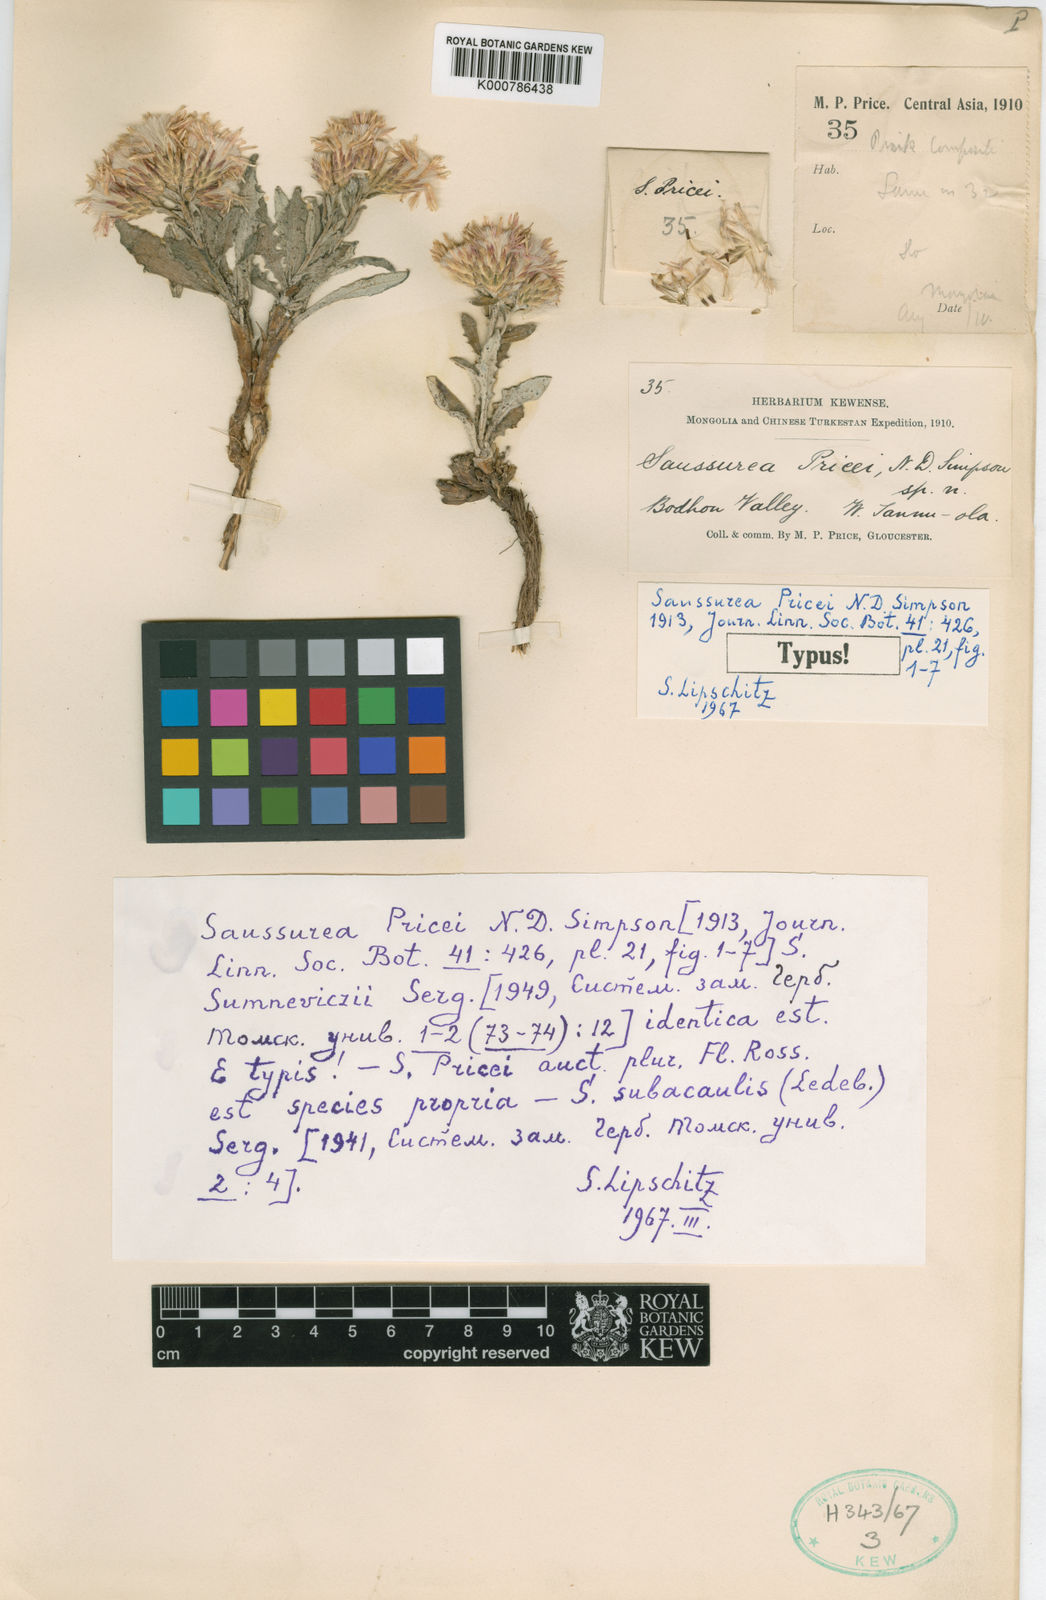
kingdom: Plantae
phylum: Tracheophyta
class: Magnoliopsida
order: Asterales
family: Asteraceae
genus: Saussurea
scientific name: Saussurea pricei
